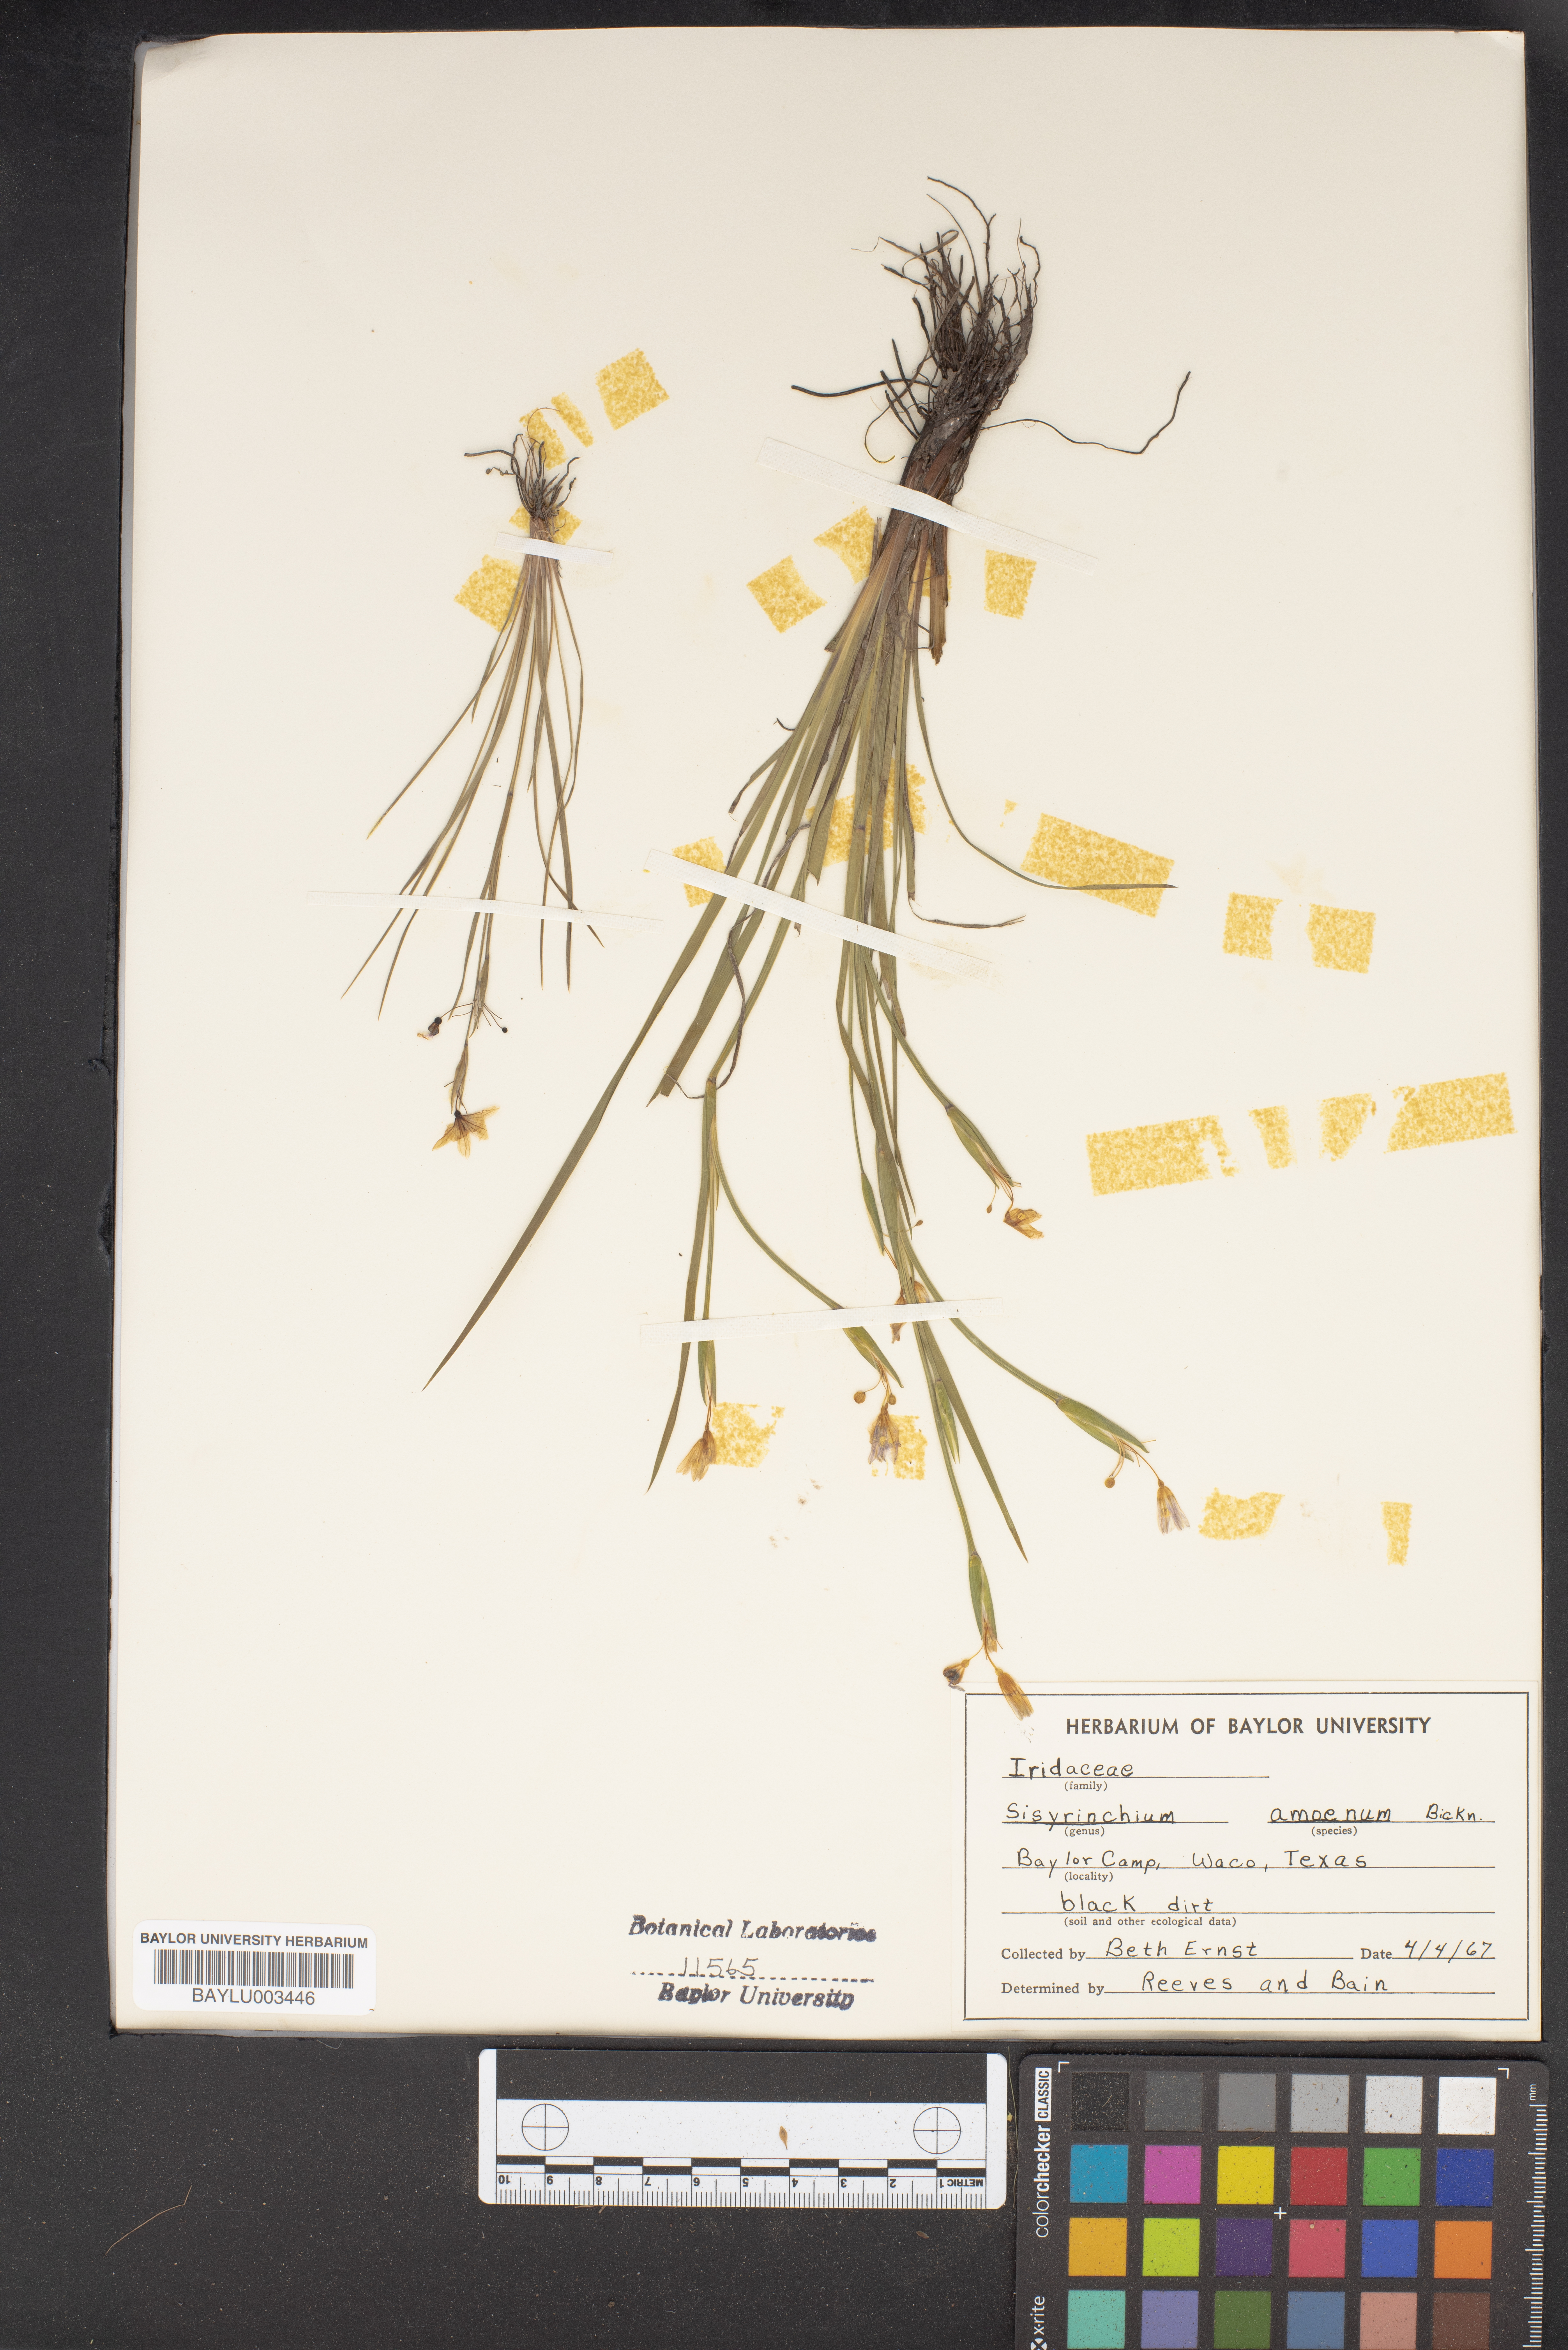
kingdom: Plantae
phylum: Tracheophyta
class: Liliopsida
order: Asparagales
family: Iridaceae
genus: Sisyrinchium
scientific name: Sisyrinchium ensigerum
